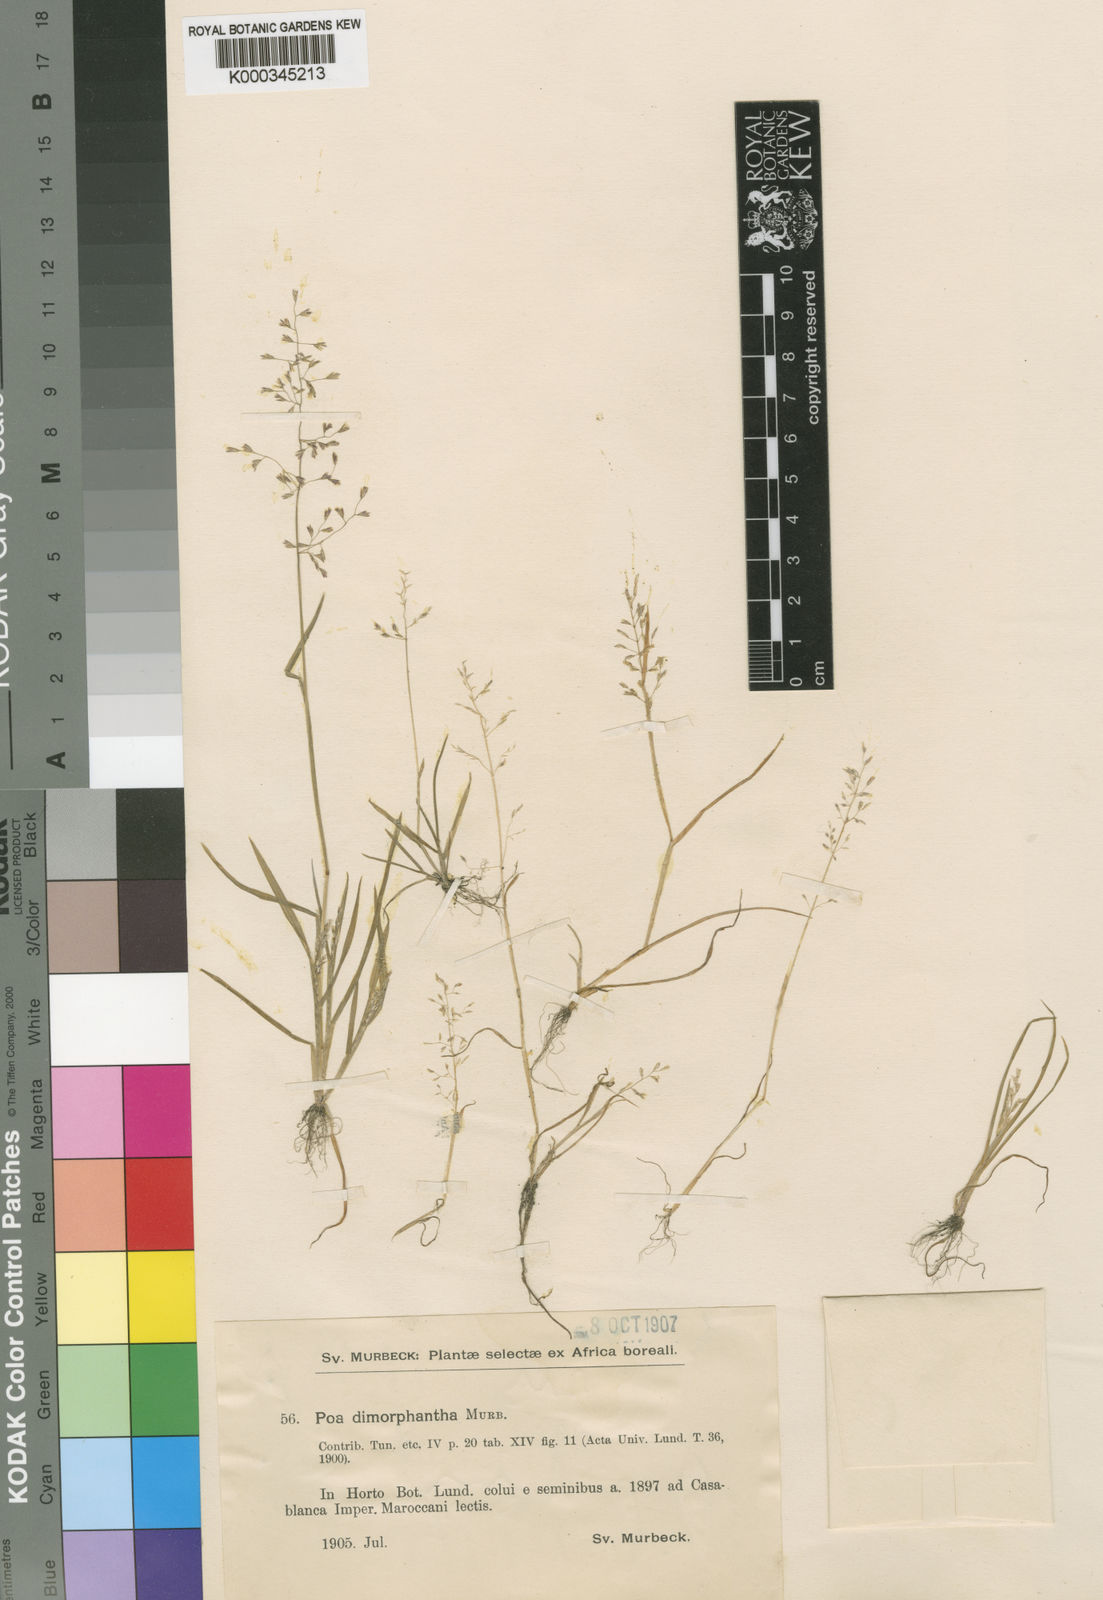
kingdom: Plantae
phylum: Tracheophyta
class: Liliopsida
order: Poales
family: Poaceae
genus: Poa
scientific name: Poa dimorphantha
